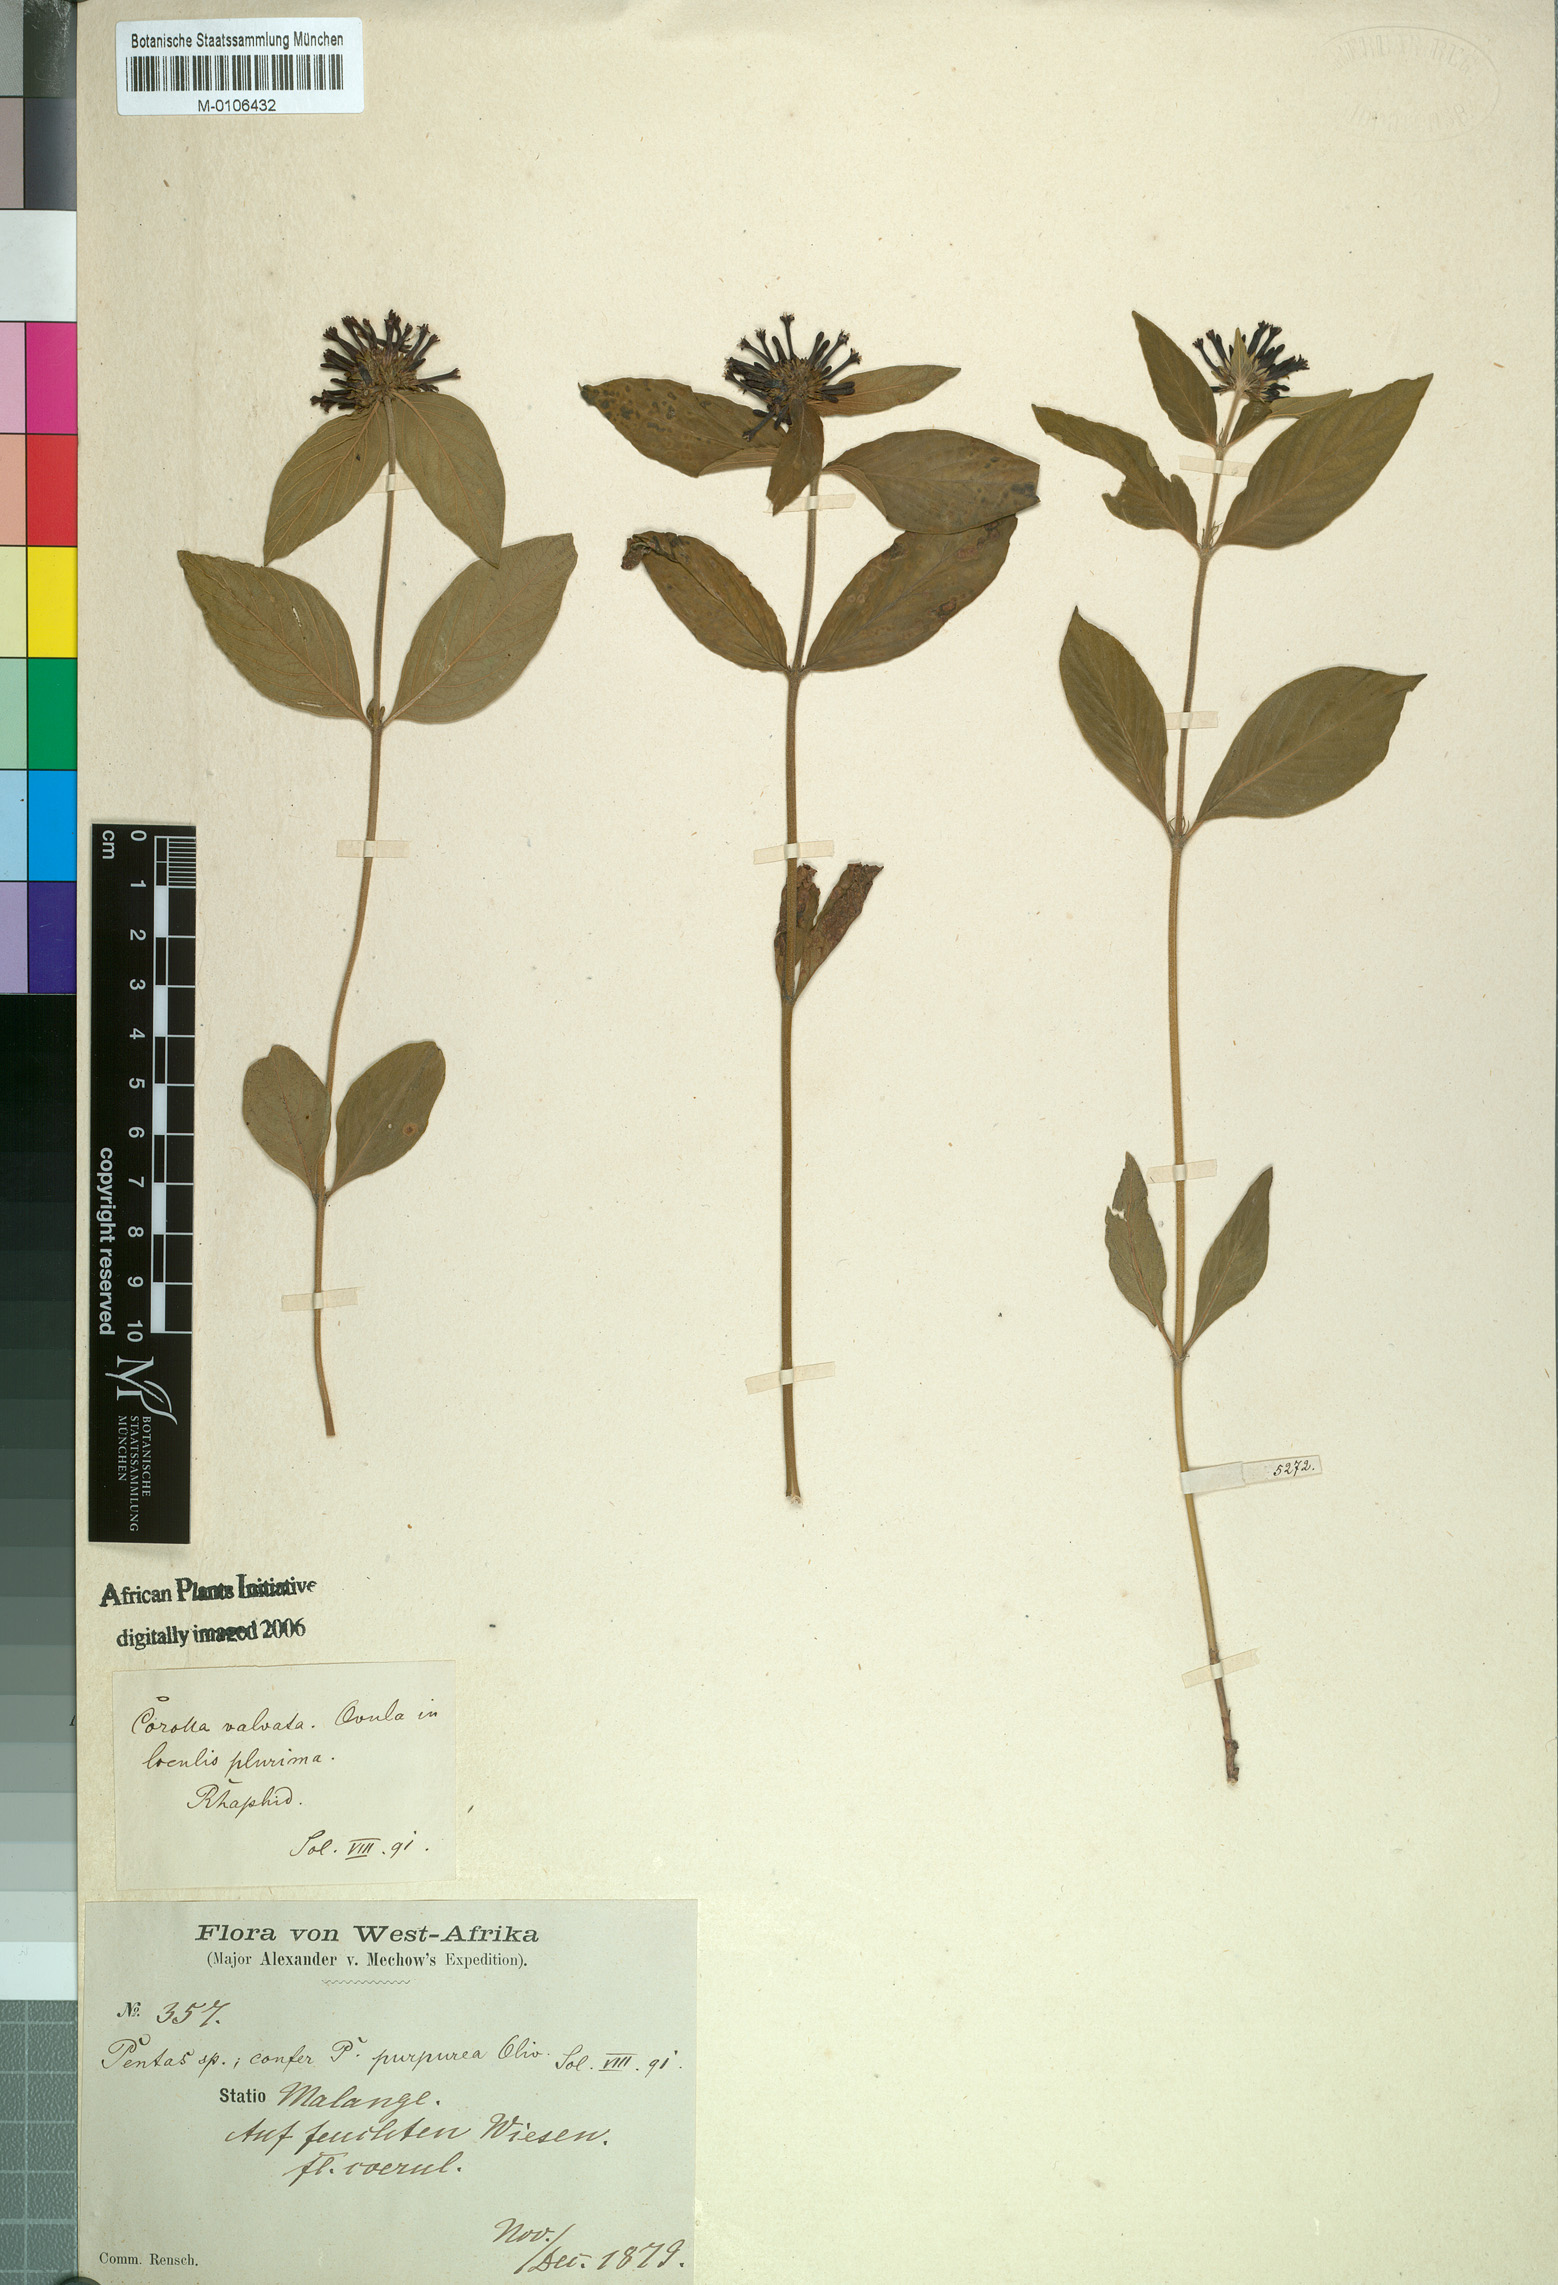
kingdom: Plantae
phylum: Tracheophyta
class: Magnoliopsida
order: Gentianales
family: Rubiaceae
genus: Pentas
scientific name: Pentas purpurea
